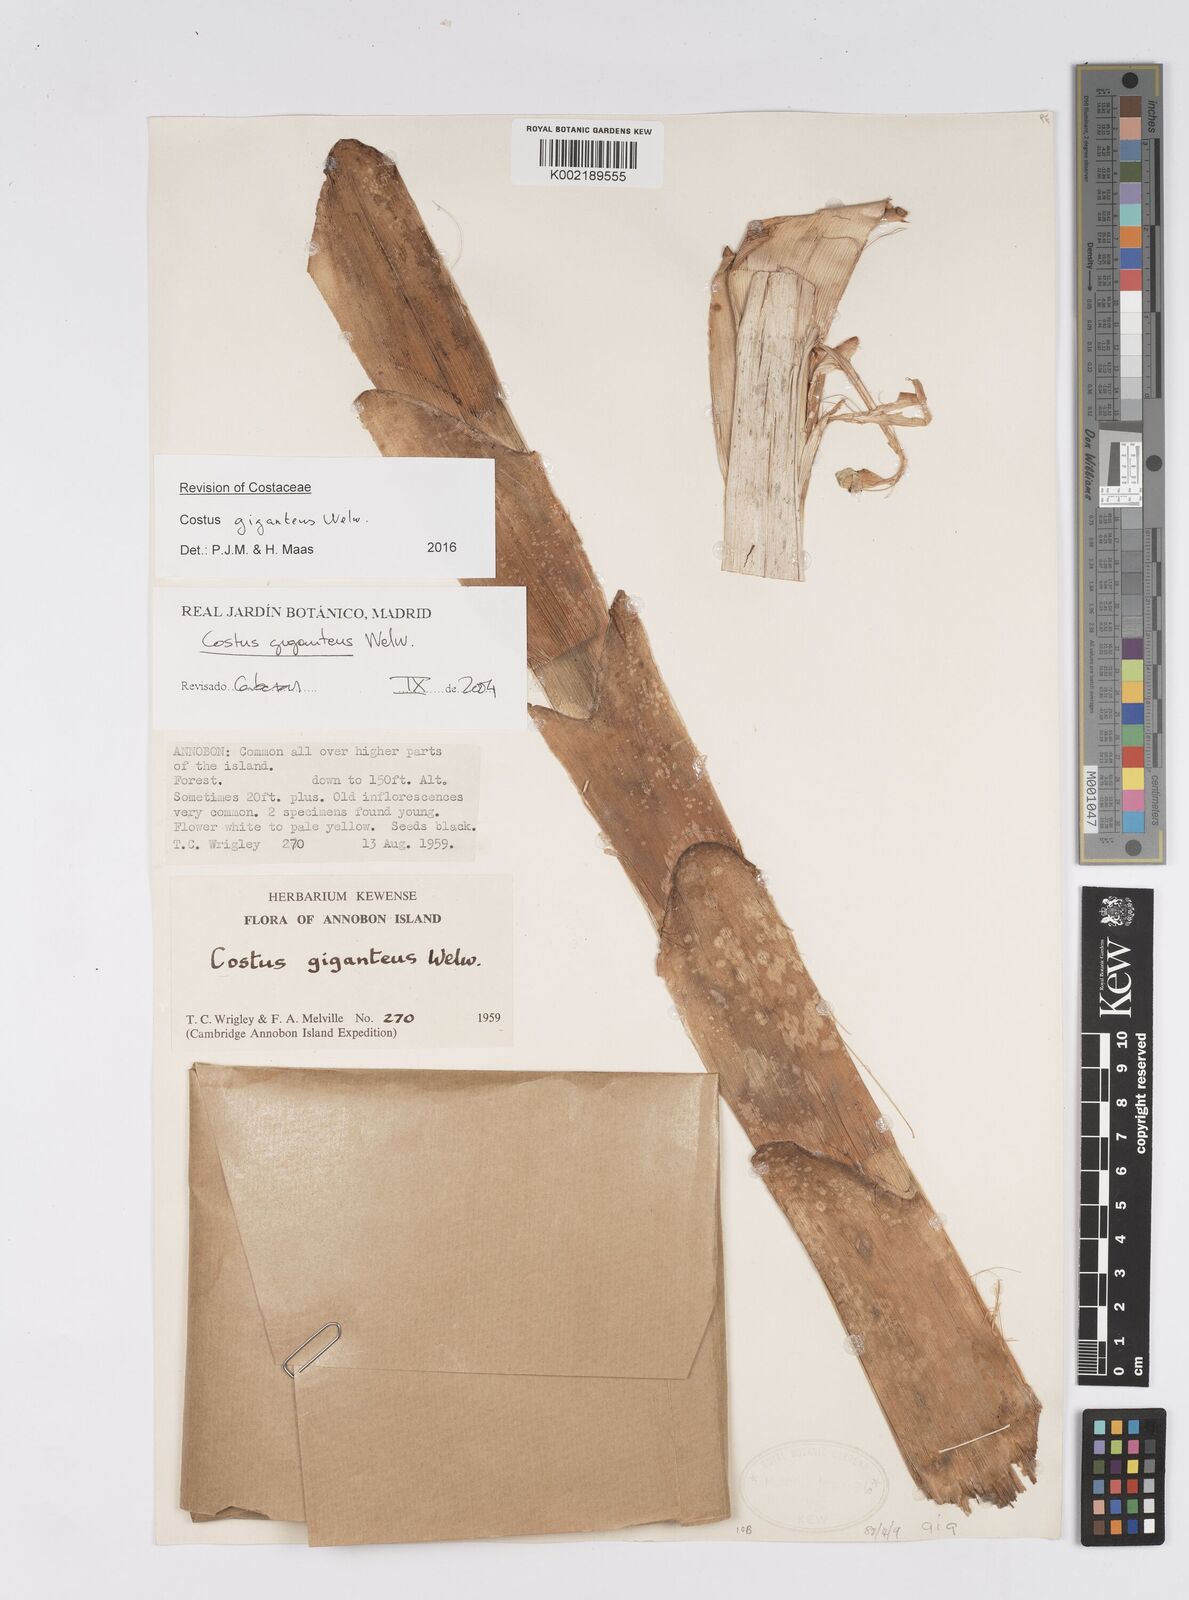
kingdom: Plantae
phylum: Tracheophyta
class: Liliopsida
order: Zingiberales
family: Costaceae
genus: Costus
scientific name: Costus giganteus
